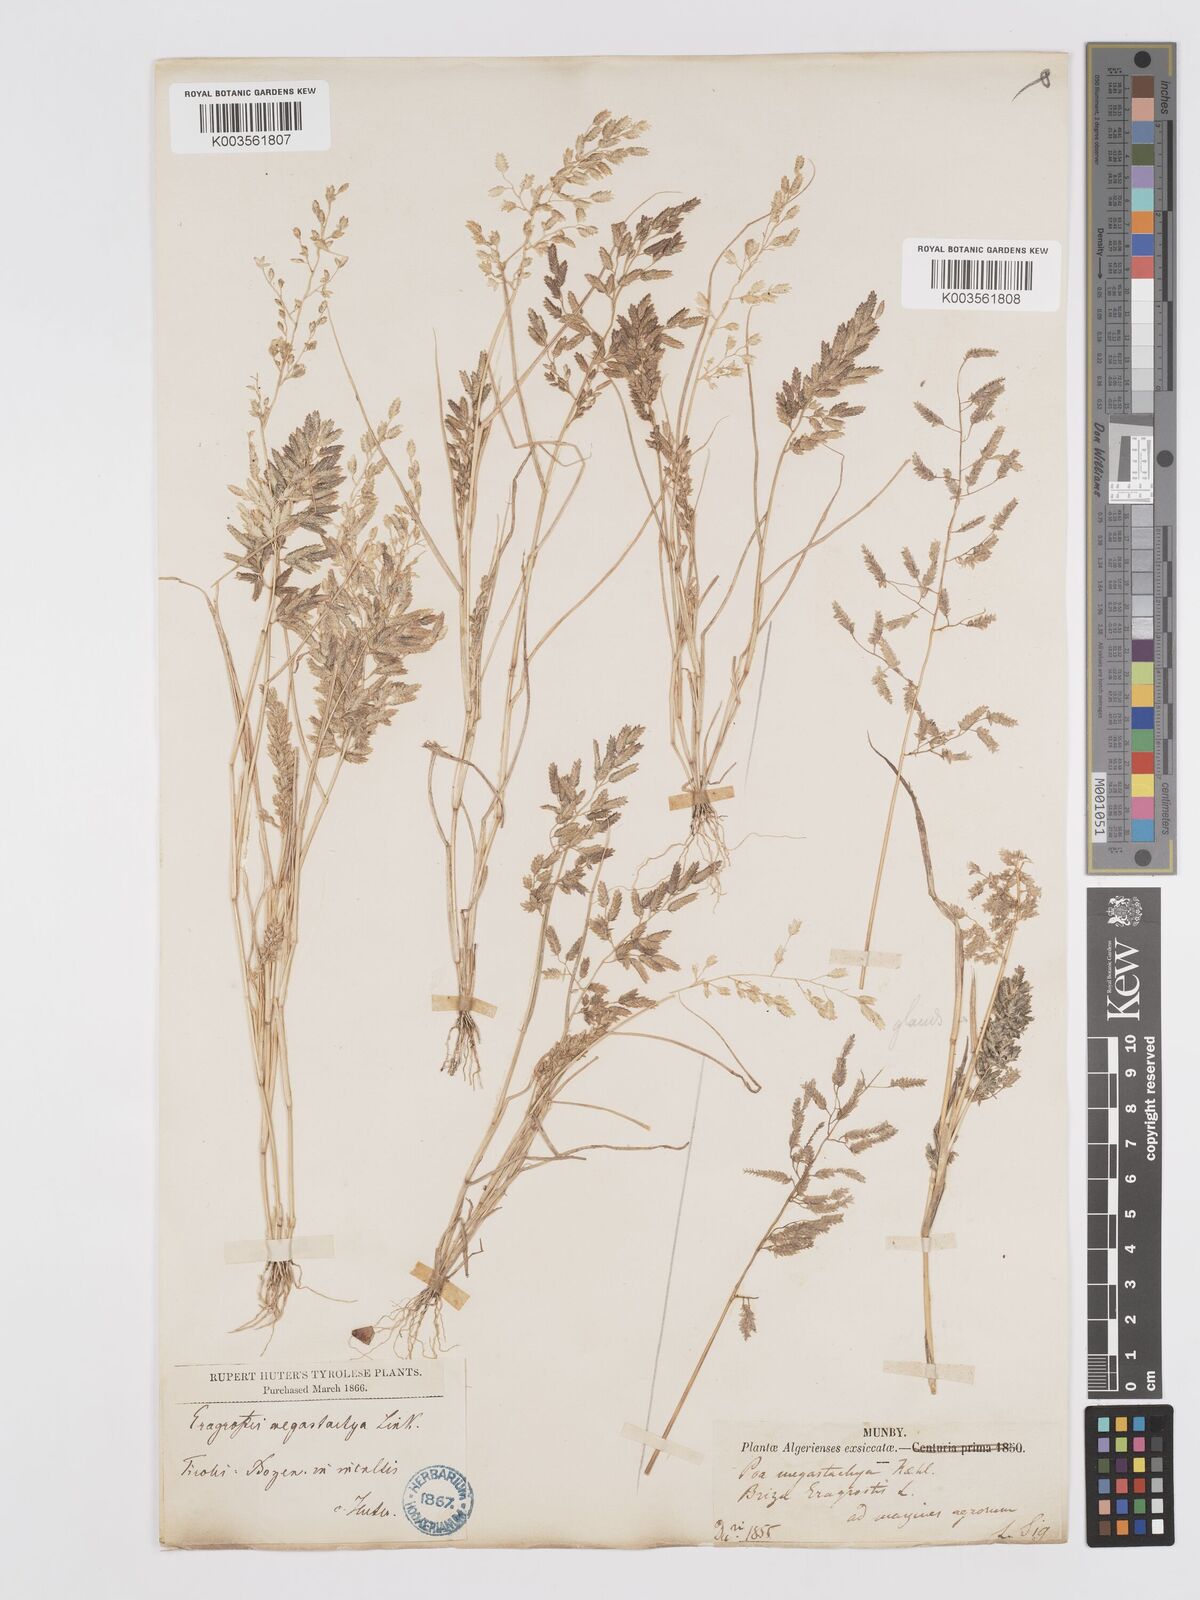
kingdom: Plantae
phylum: Tracheophyta
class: Liliopsida
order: Poales
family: Poaceae
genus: Eragrostis
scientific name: Eragrostis cilianensis
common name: Stinkgrass
